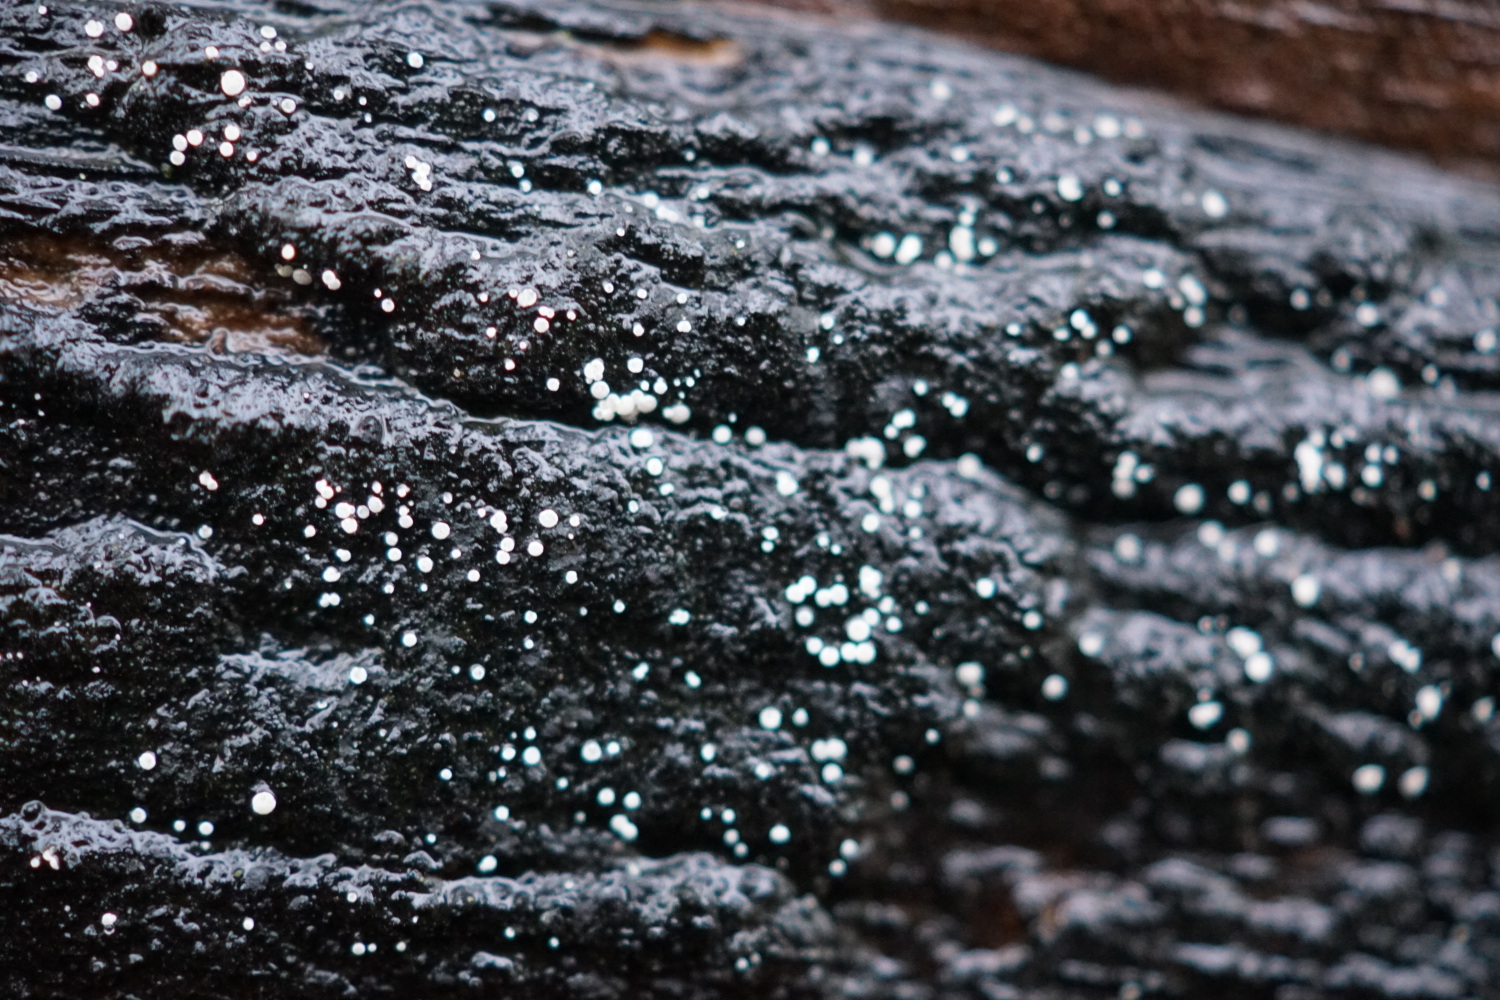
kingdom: Fungi
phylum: Ascomycota
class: Leotiomycetes
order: Helotiales
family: Hyaloscyphaceae
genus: Polydesmia
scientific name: Polydesmia pruinosa
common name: dunskive
